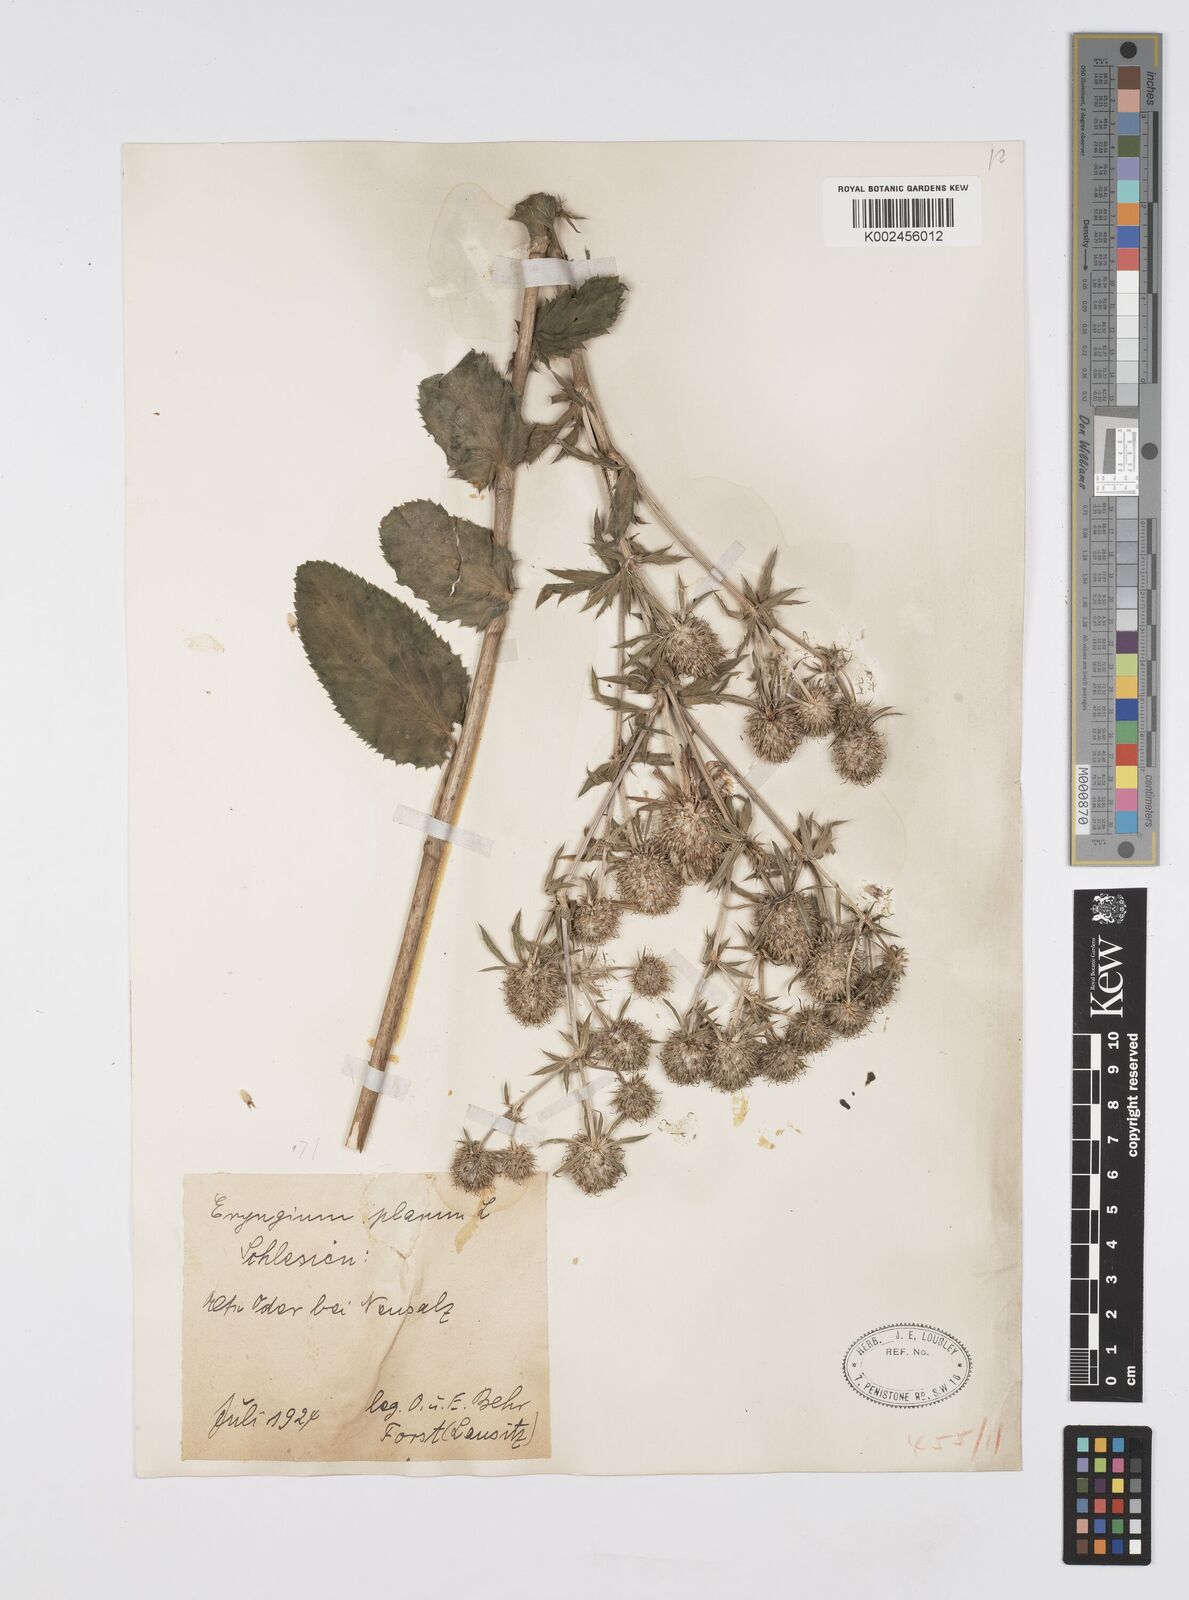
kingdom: Plantae
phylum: Tracheophyta
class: Magnoliopsida
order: Apiales
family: Apiaceae
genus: Eryngium
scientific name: Eryngium planum
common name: Blue eryngo
